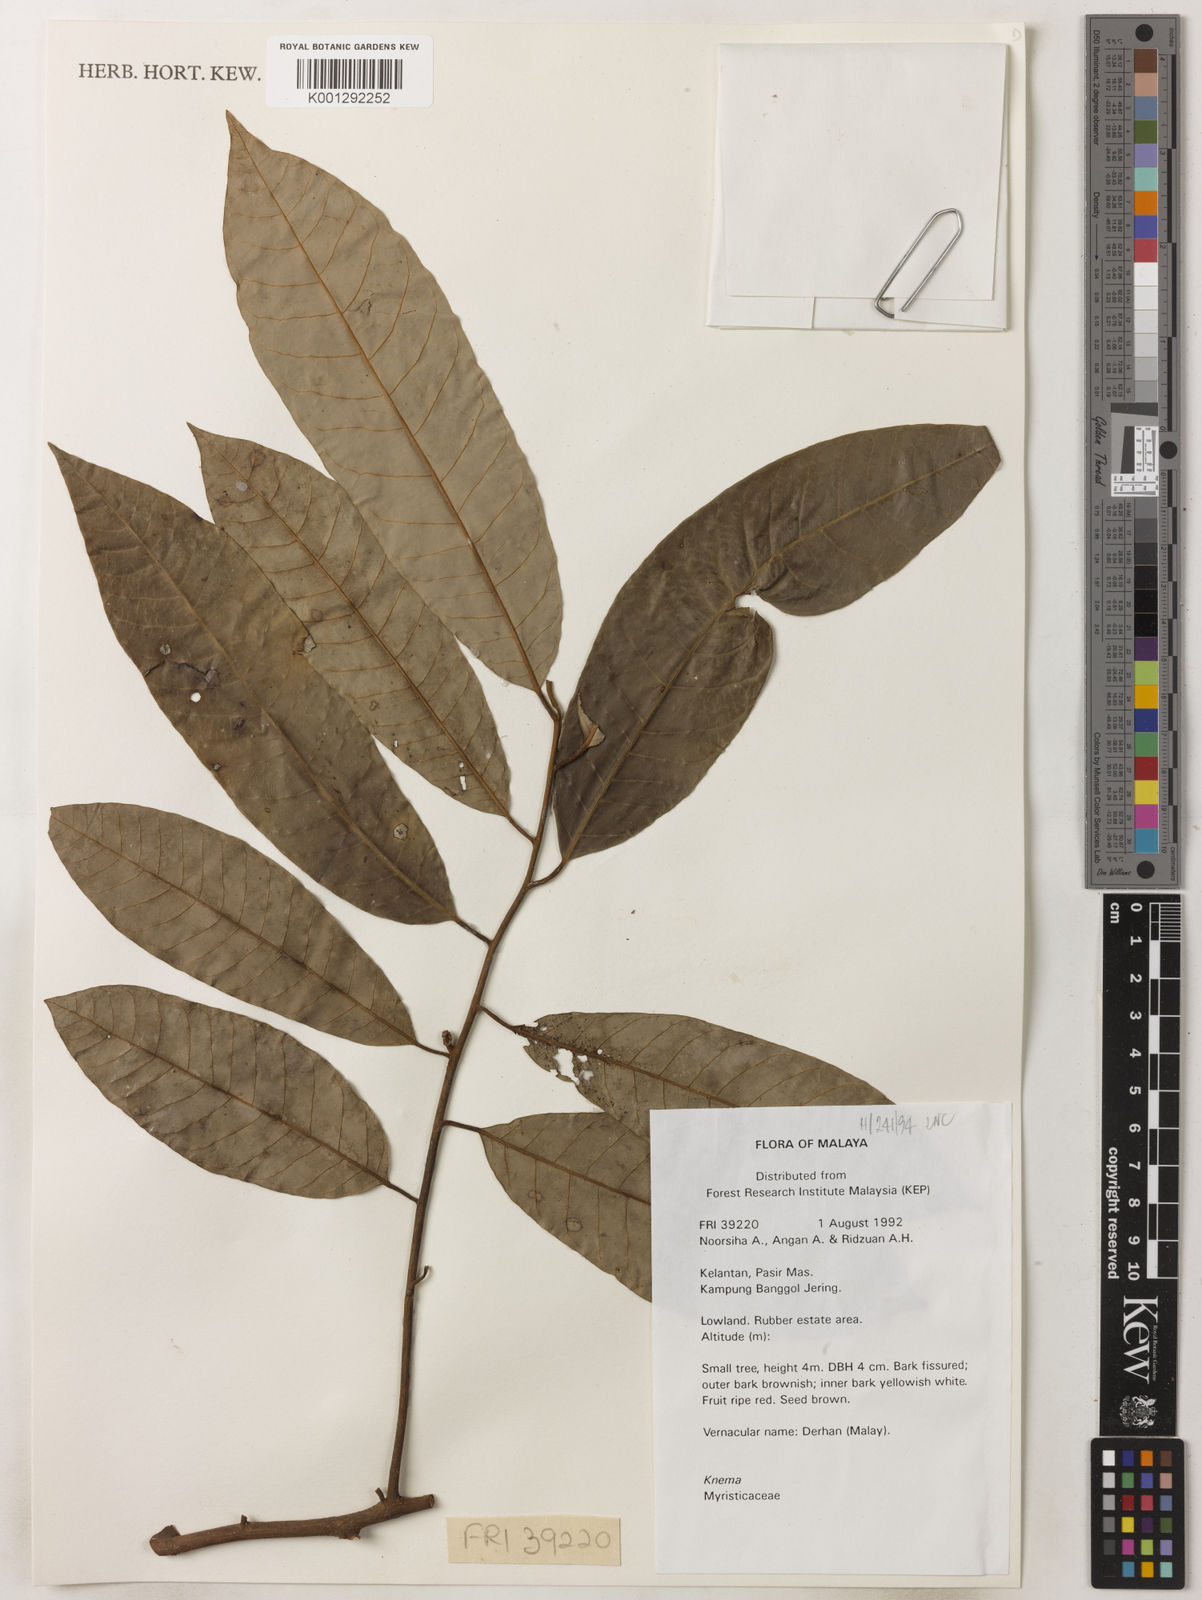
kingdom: Plantae
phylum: Tracheophyta
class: Magnoliopsida
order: Magnoliales
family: Myristicaceae
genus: Knema
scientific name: Knema
